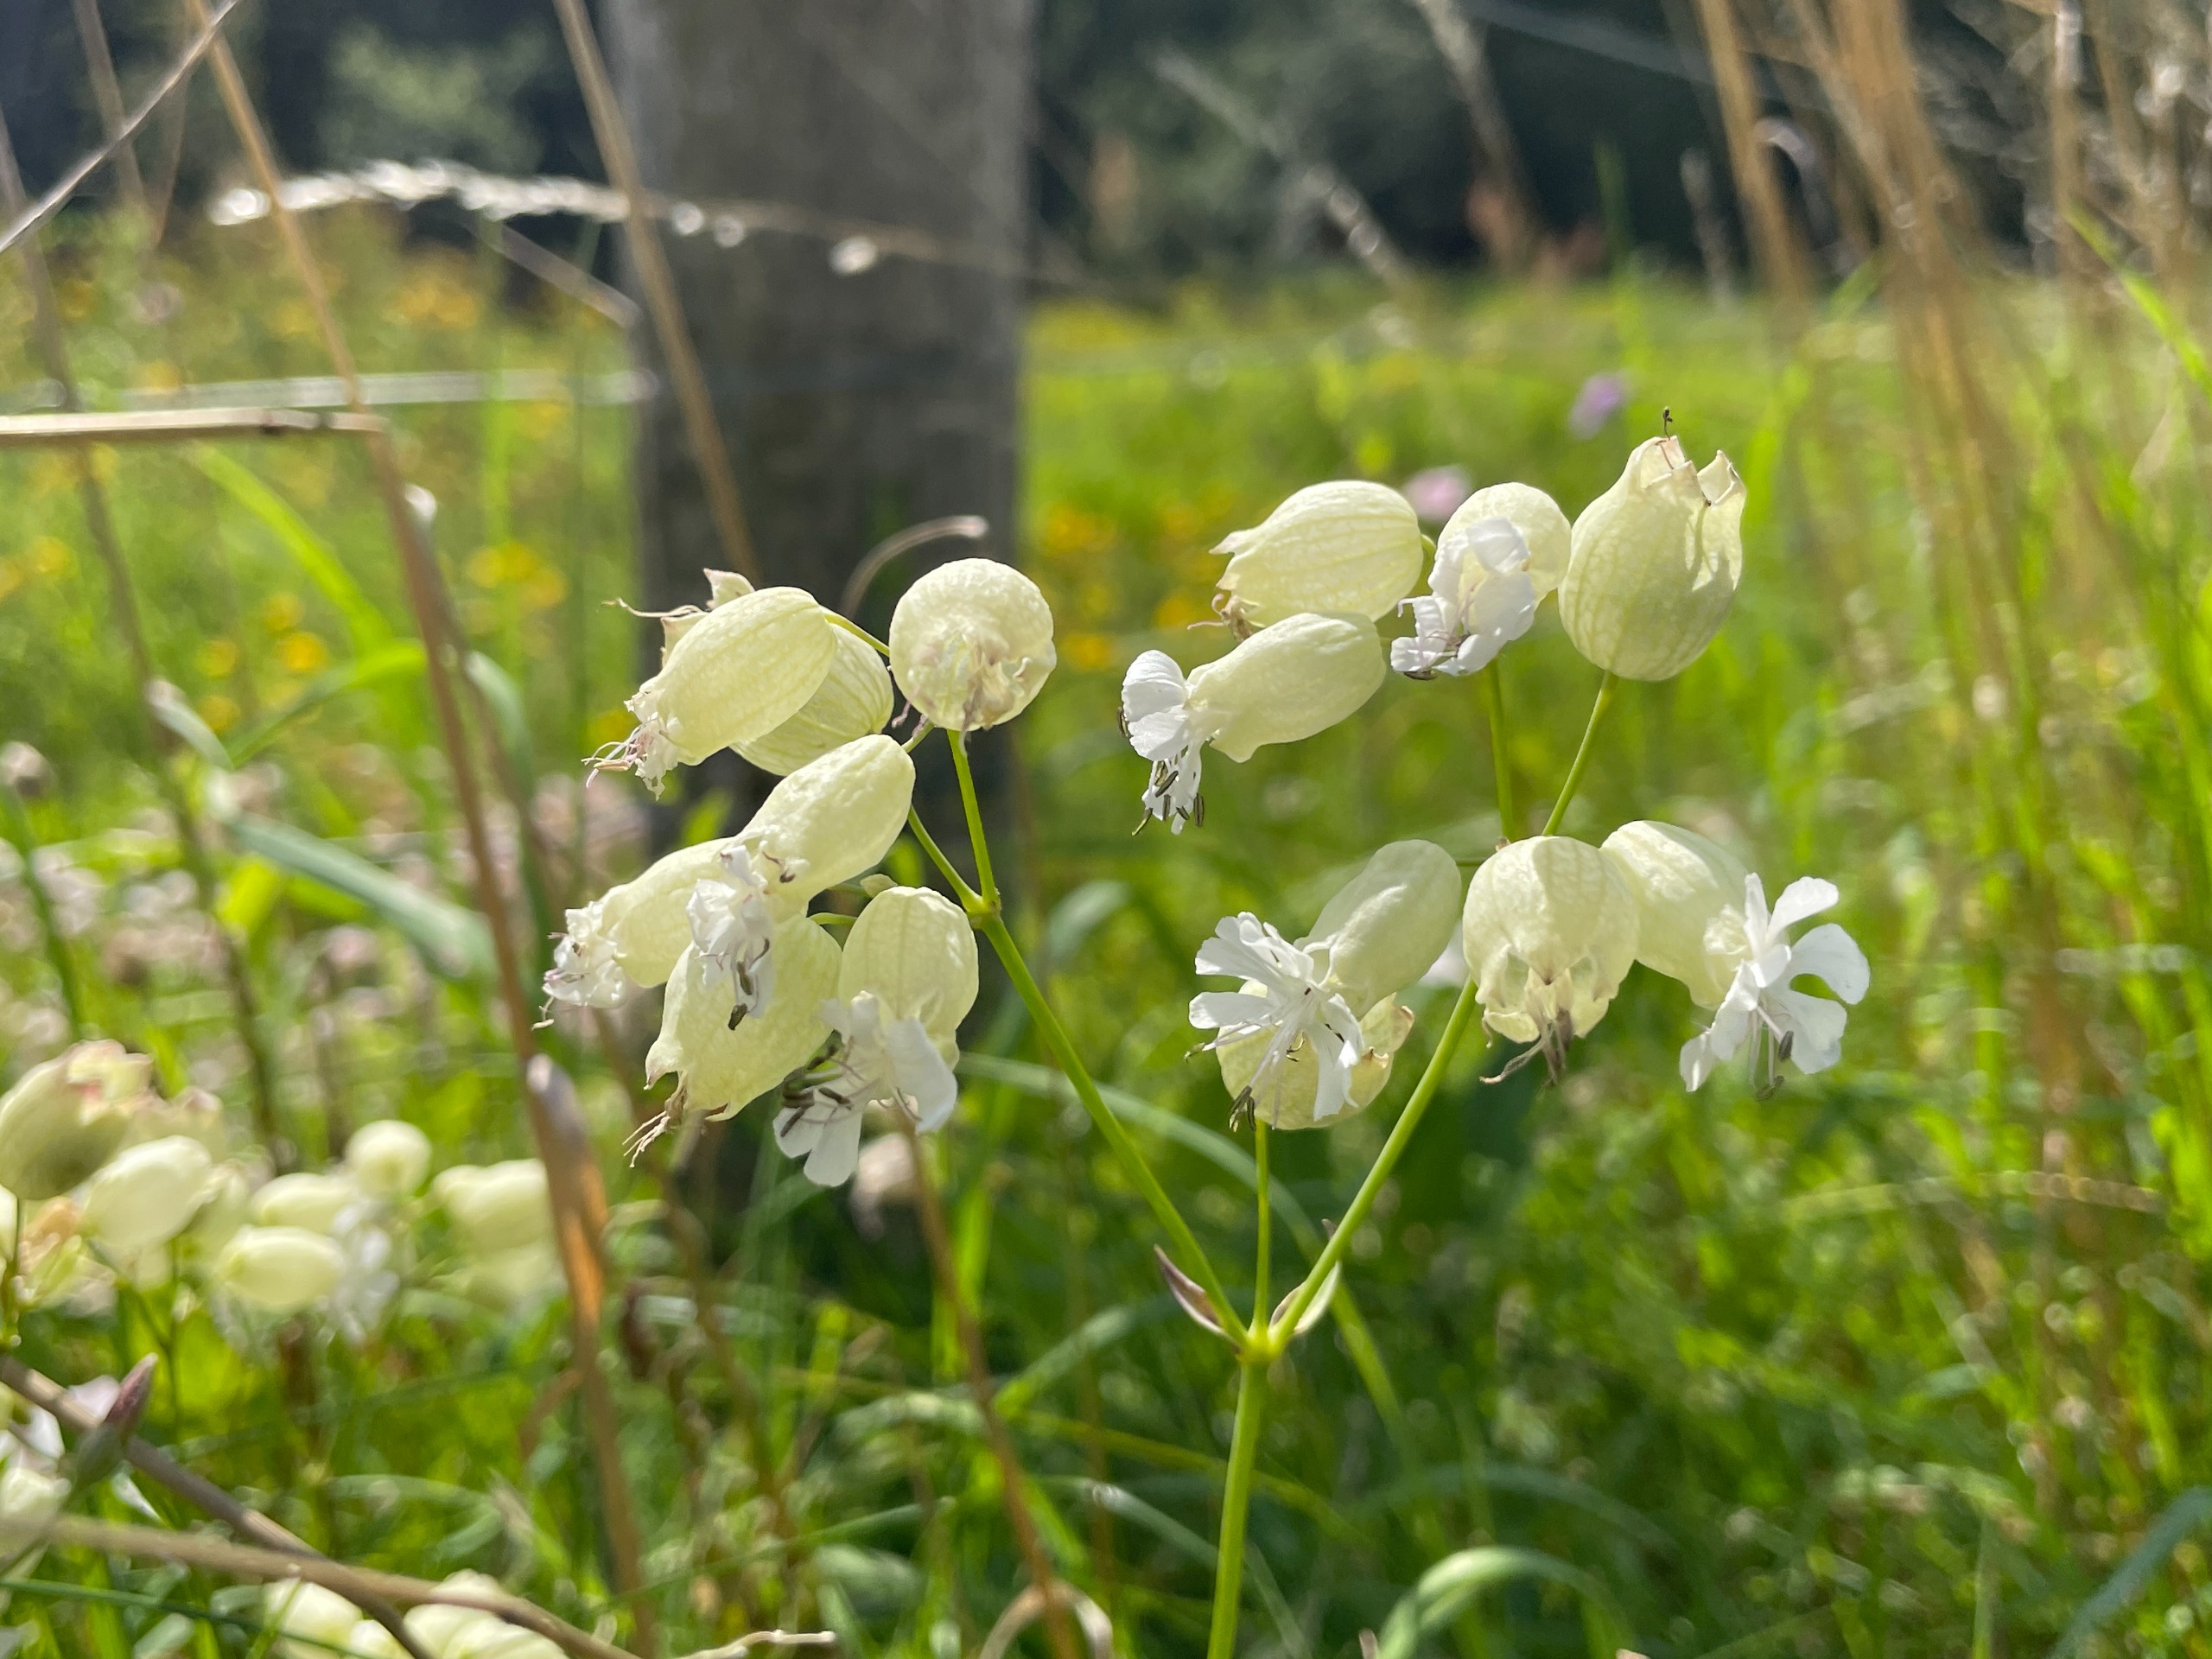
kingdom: Plantae
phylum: Tracheophyta
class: Magnoliopsida
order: Caryophyllales
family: Caryophyllaceae
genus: Silene
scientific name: Silene vulgaris
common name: Blæresmælde
